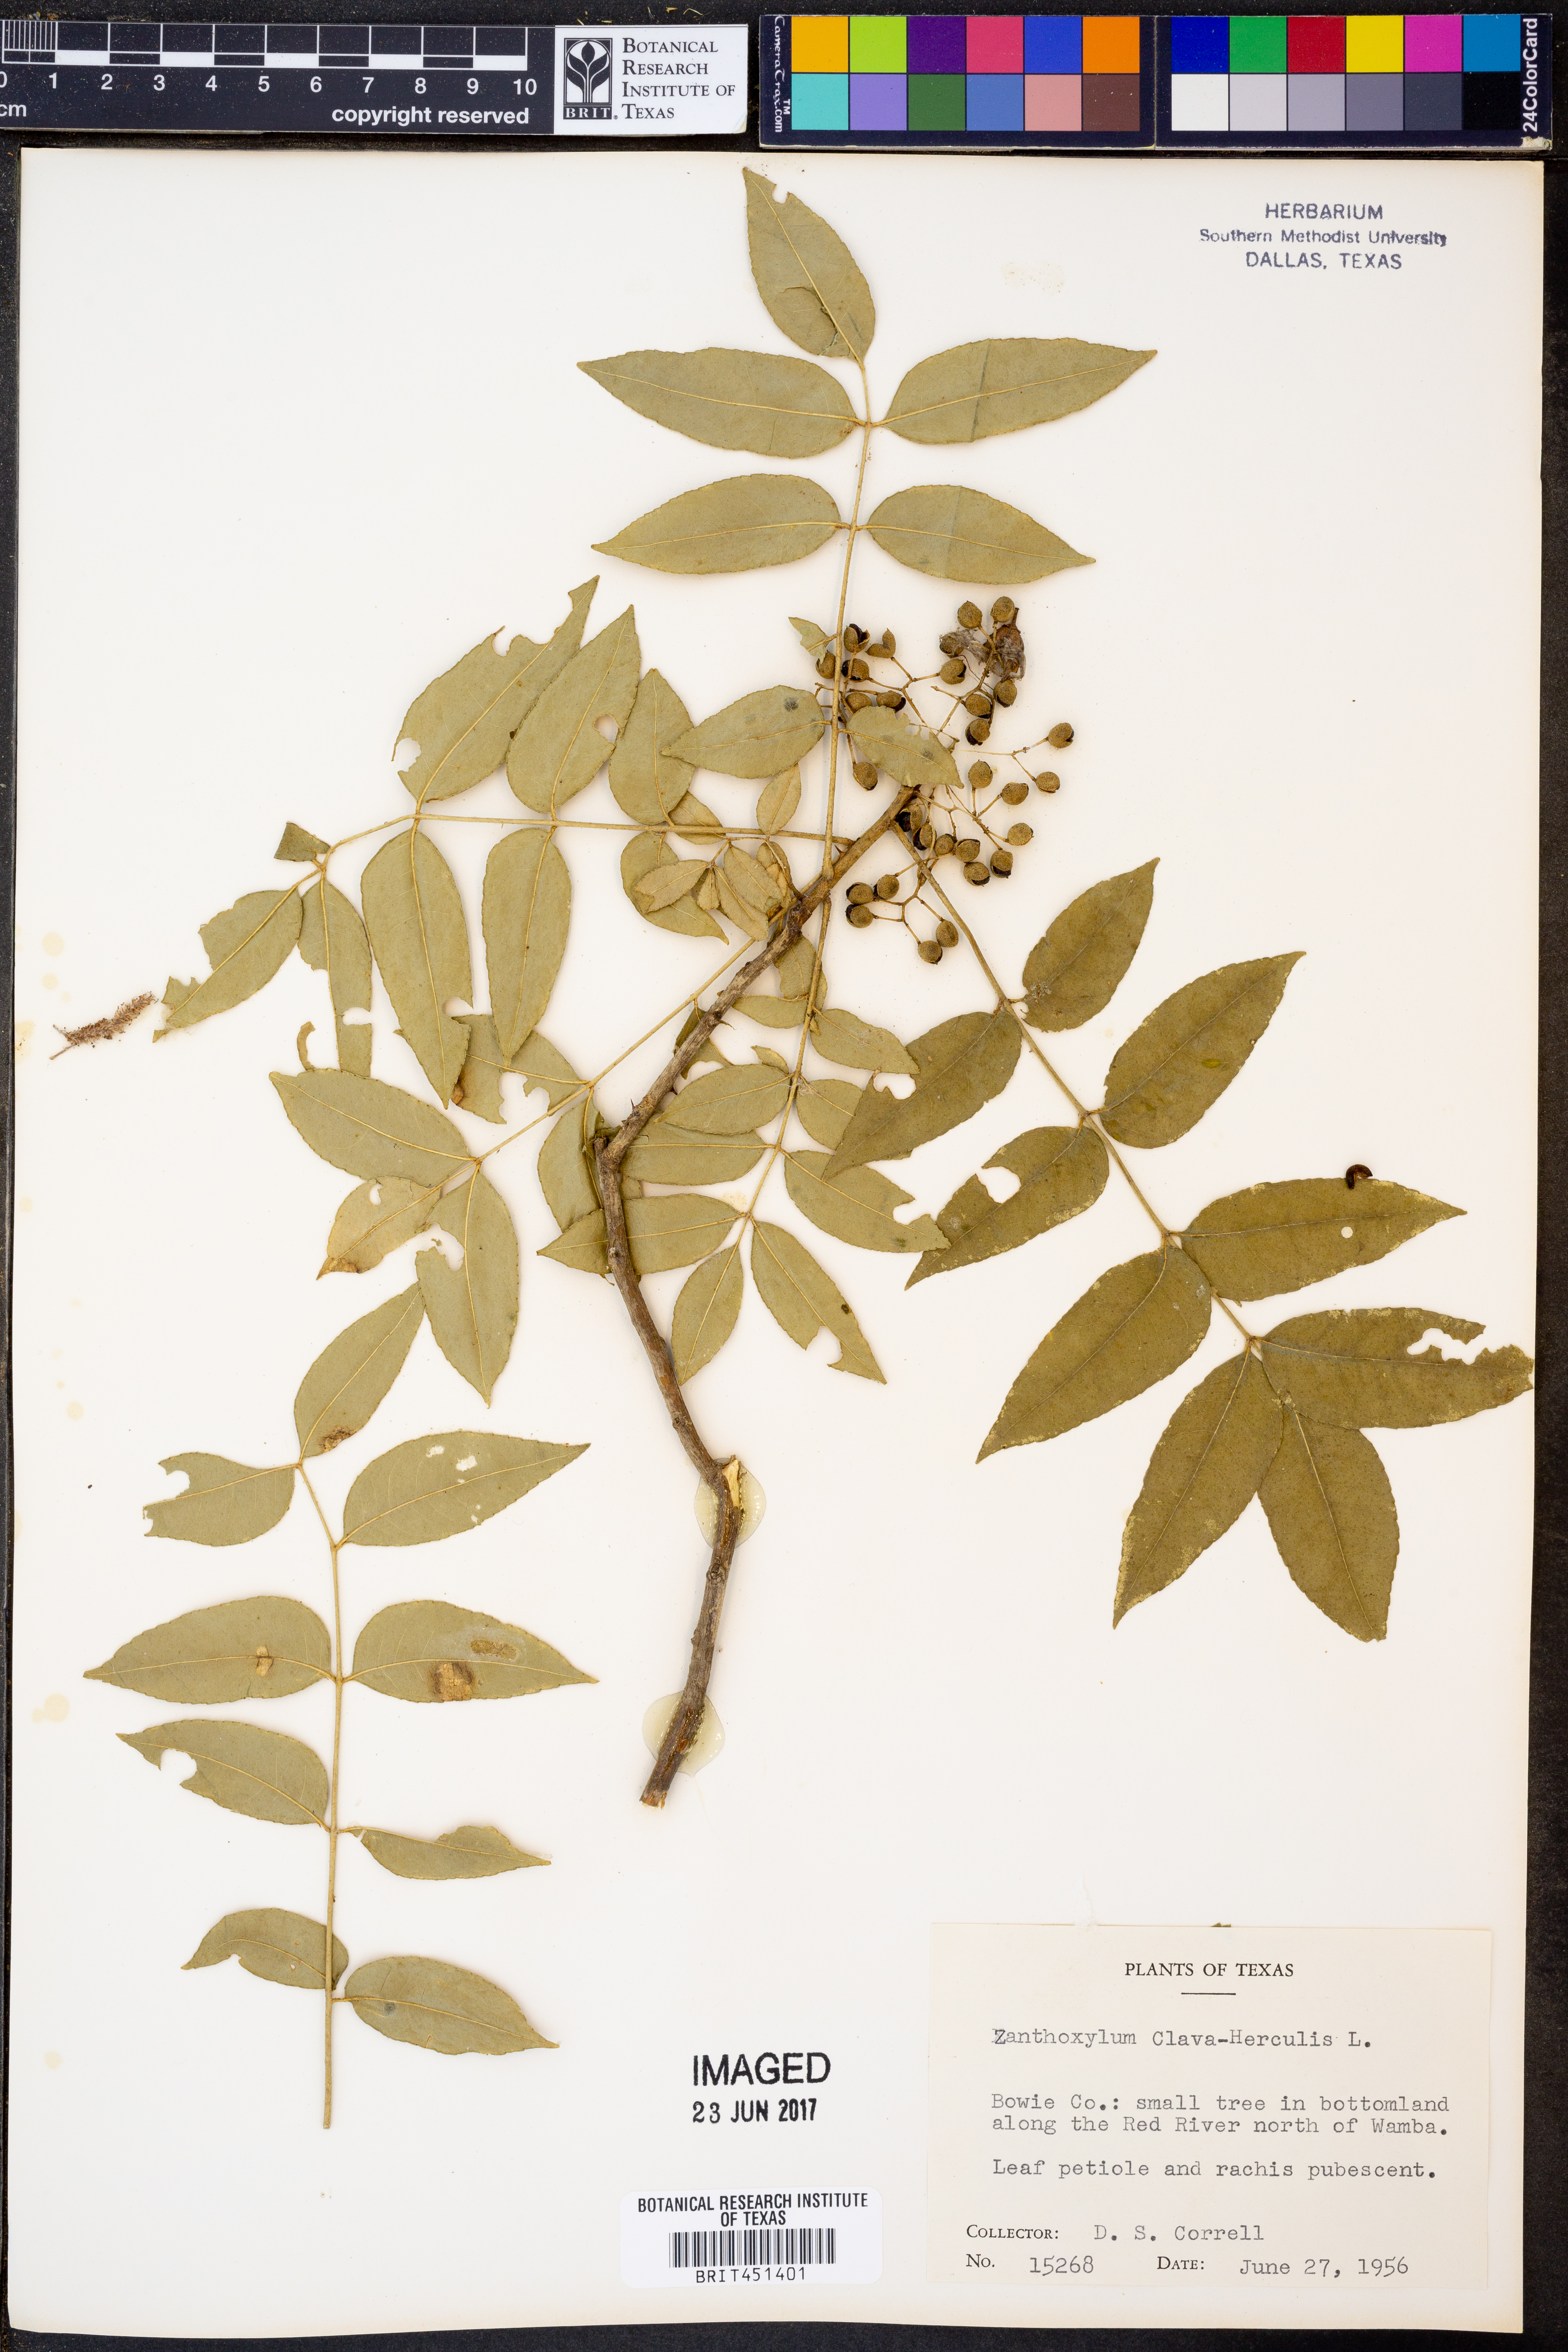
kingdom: Plantae
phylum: Tracheophyta
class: Magnoliopsida
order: Sapindales
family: Rutaceae
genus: Zanthoxylum
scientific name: Zanthoxylum avicennae
